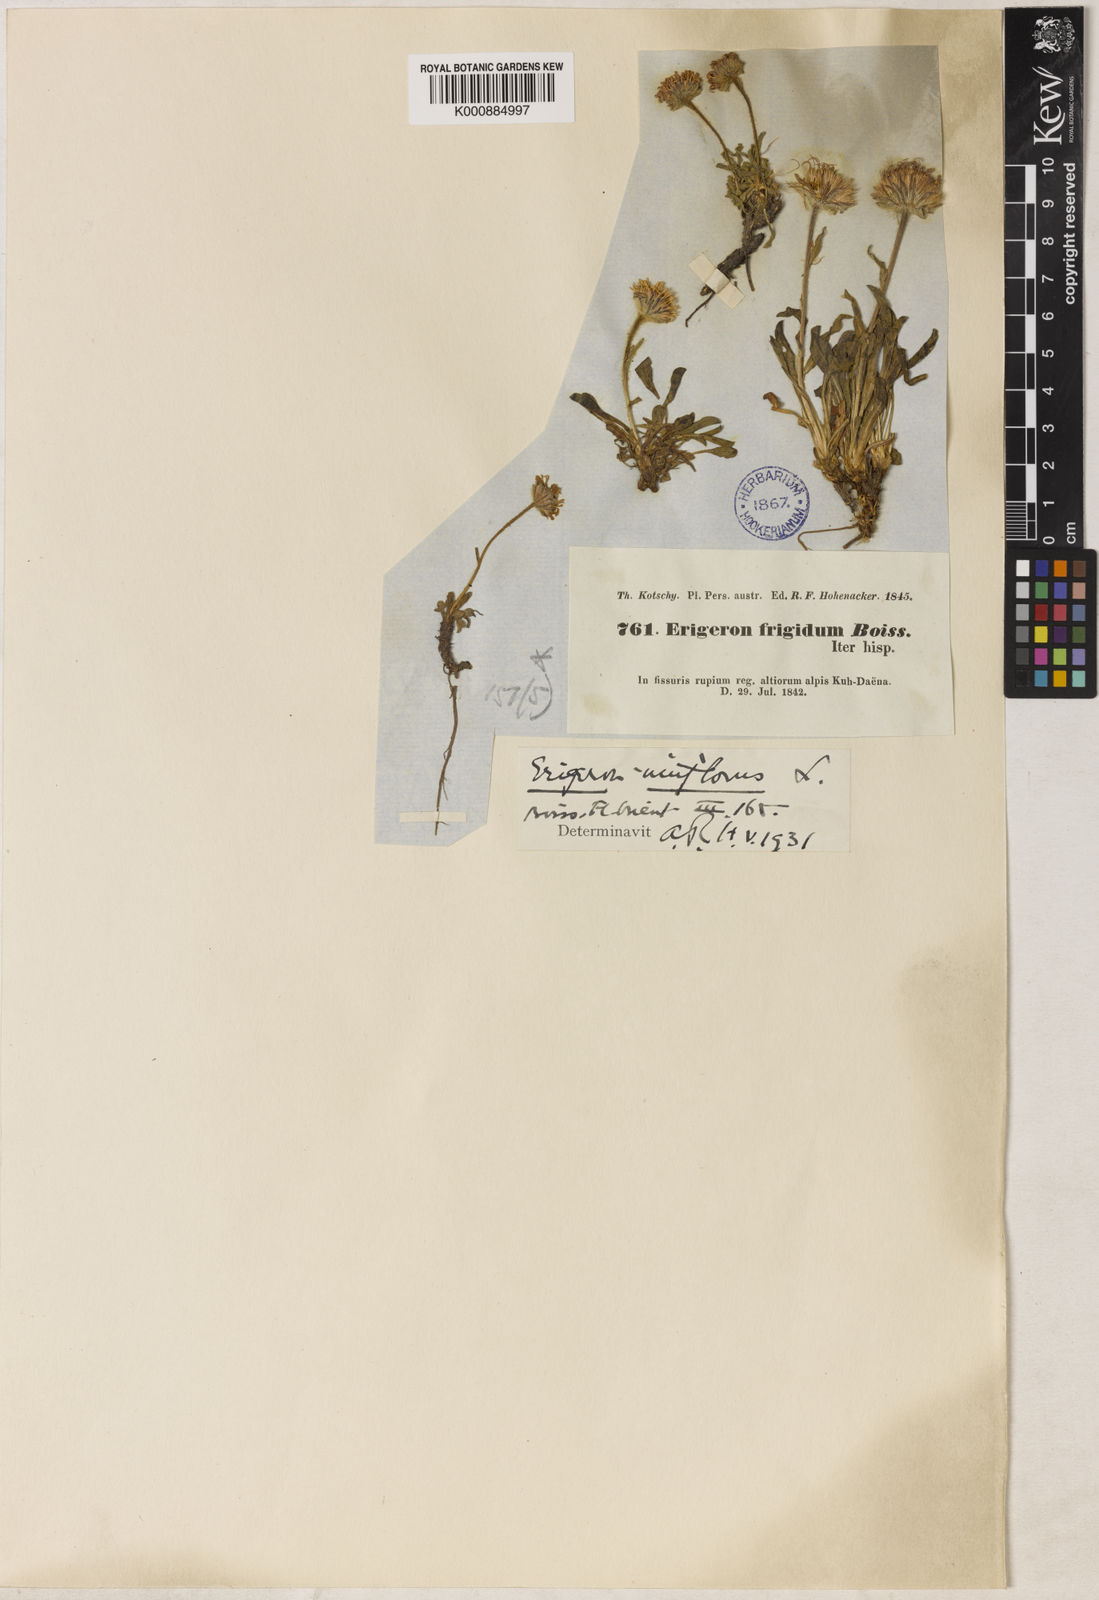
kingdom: Plantae
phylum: Tracheophyta
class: Magnoliopsida
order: Asterales
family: Asteraceae
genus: Erigeron
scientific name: Erigeron uniflorus
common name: Northern daisy
